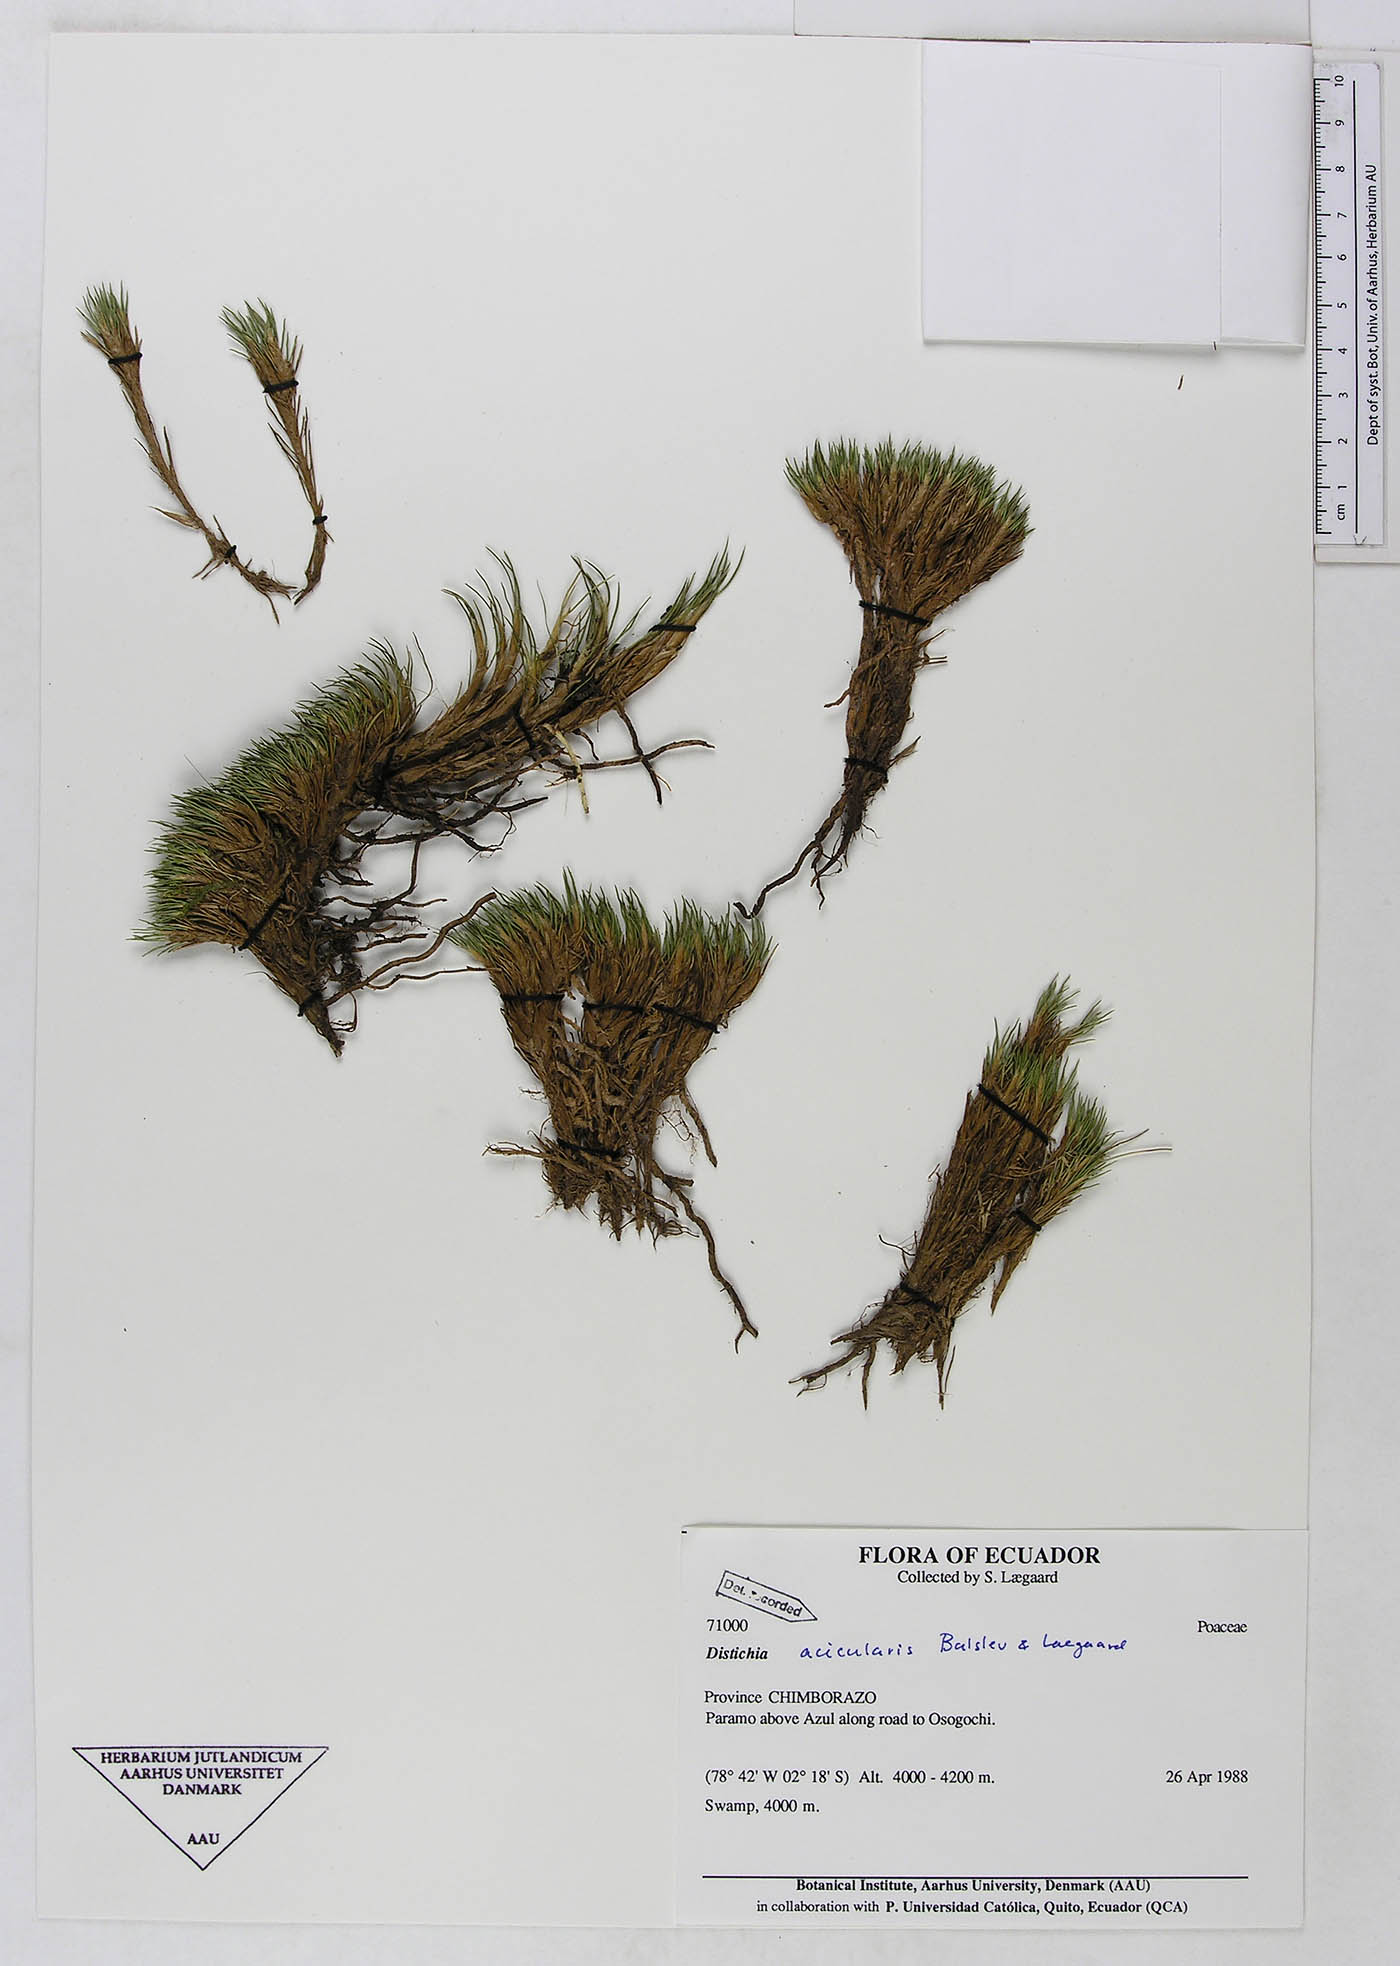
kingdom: Plantae
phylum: Tracheophyta
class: Liliopsida
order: Poales
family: Juncaceae
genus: Distichia
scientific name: Distichia acicularis
